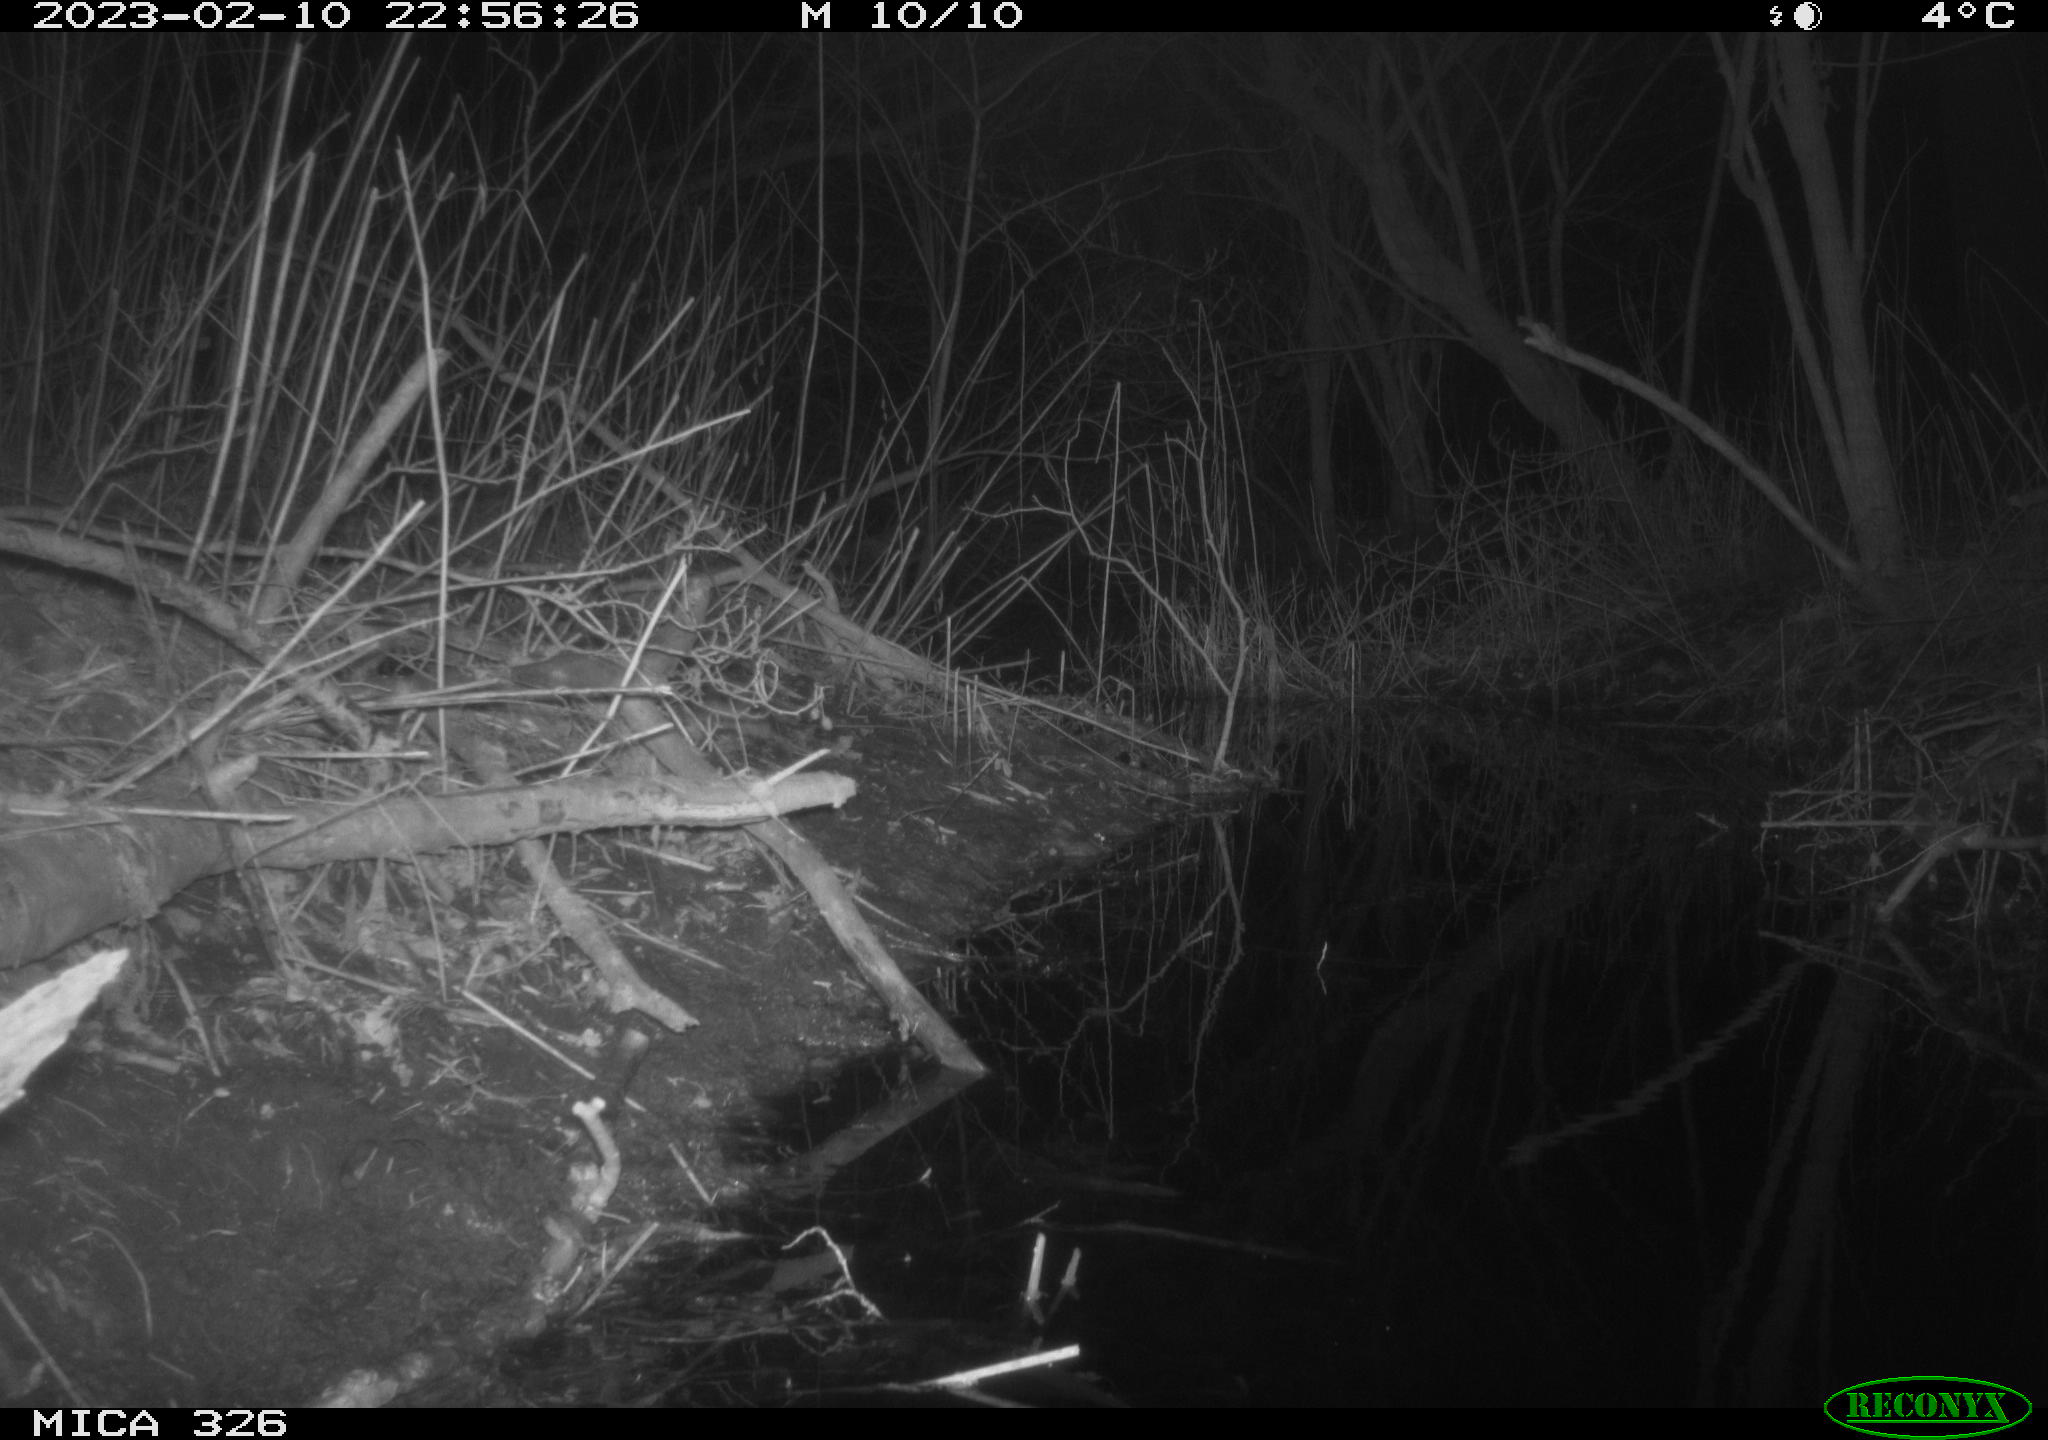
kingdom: Animalia
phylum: Chordata
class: Mammalia
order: Rodentia
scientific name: Rodentia
